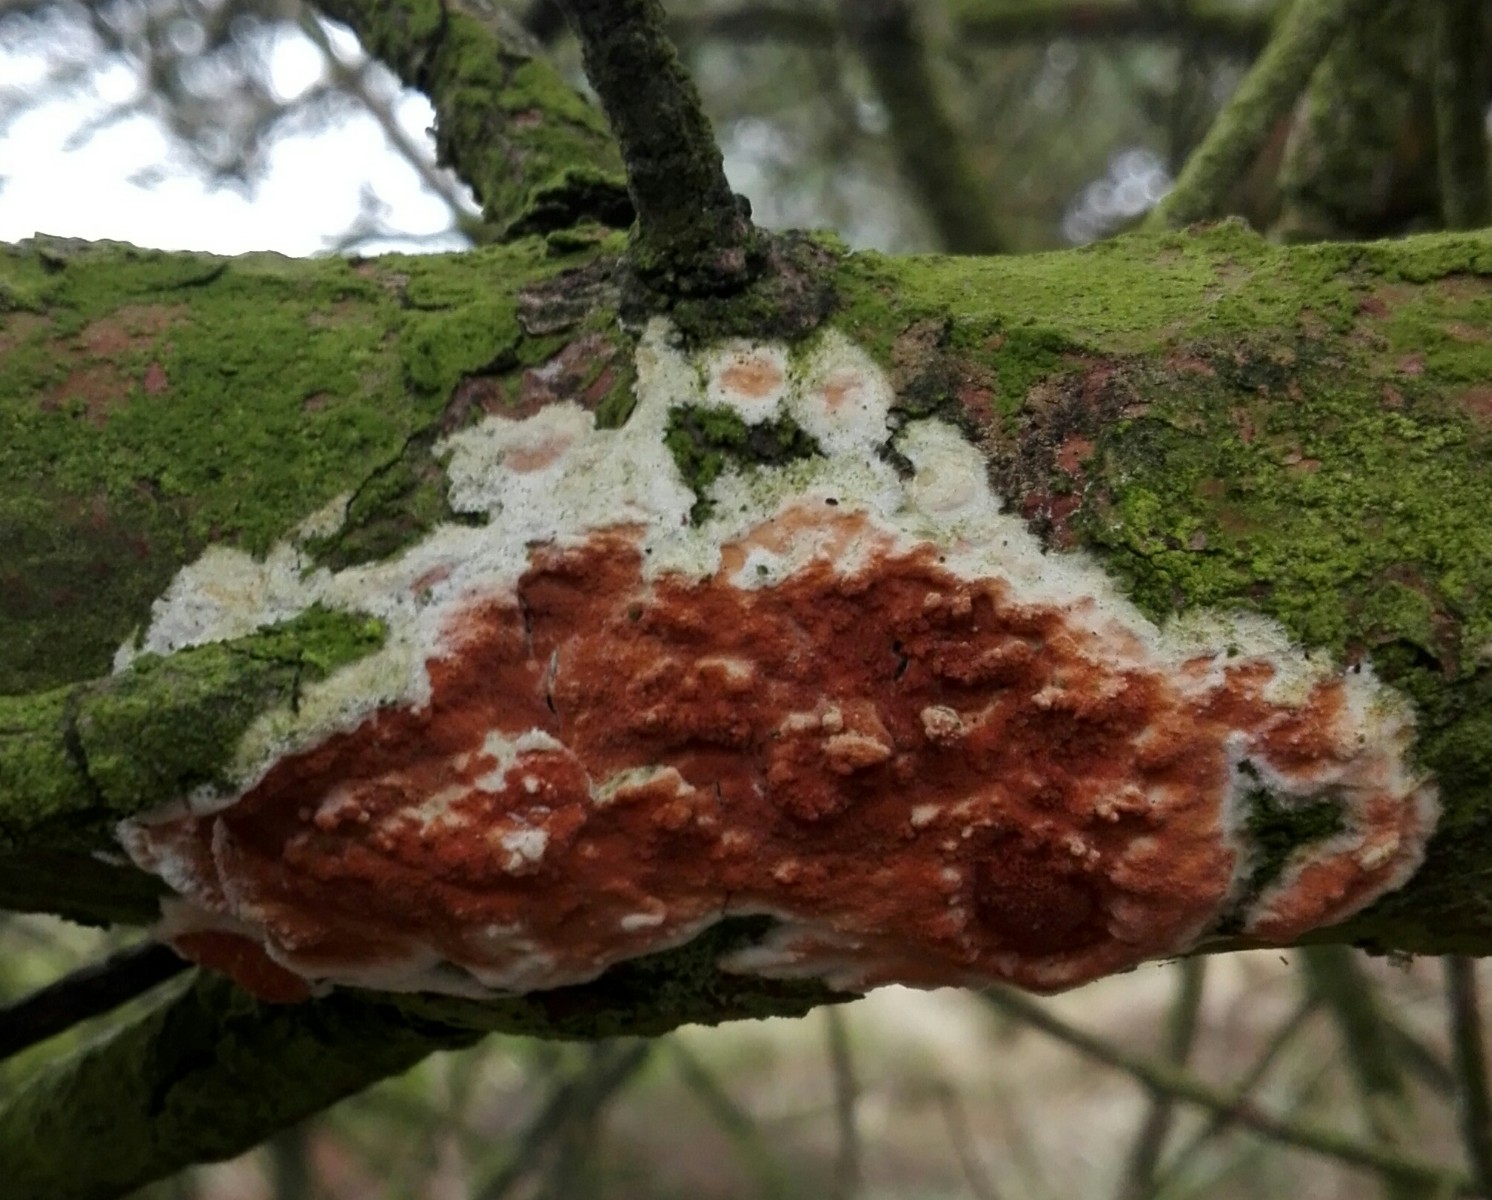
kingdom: Fungi
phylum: Basidiomycota
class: Agaricomycetes
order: Polyporales
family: Irpicaceae
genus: Meruliopsis
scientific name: Meruliopsis taxicola
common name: purpurbrun foldporesvamp
